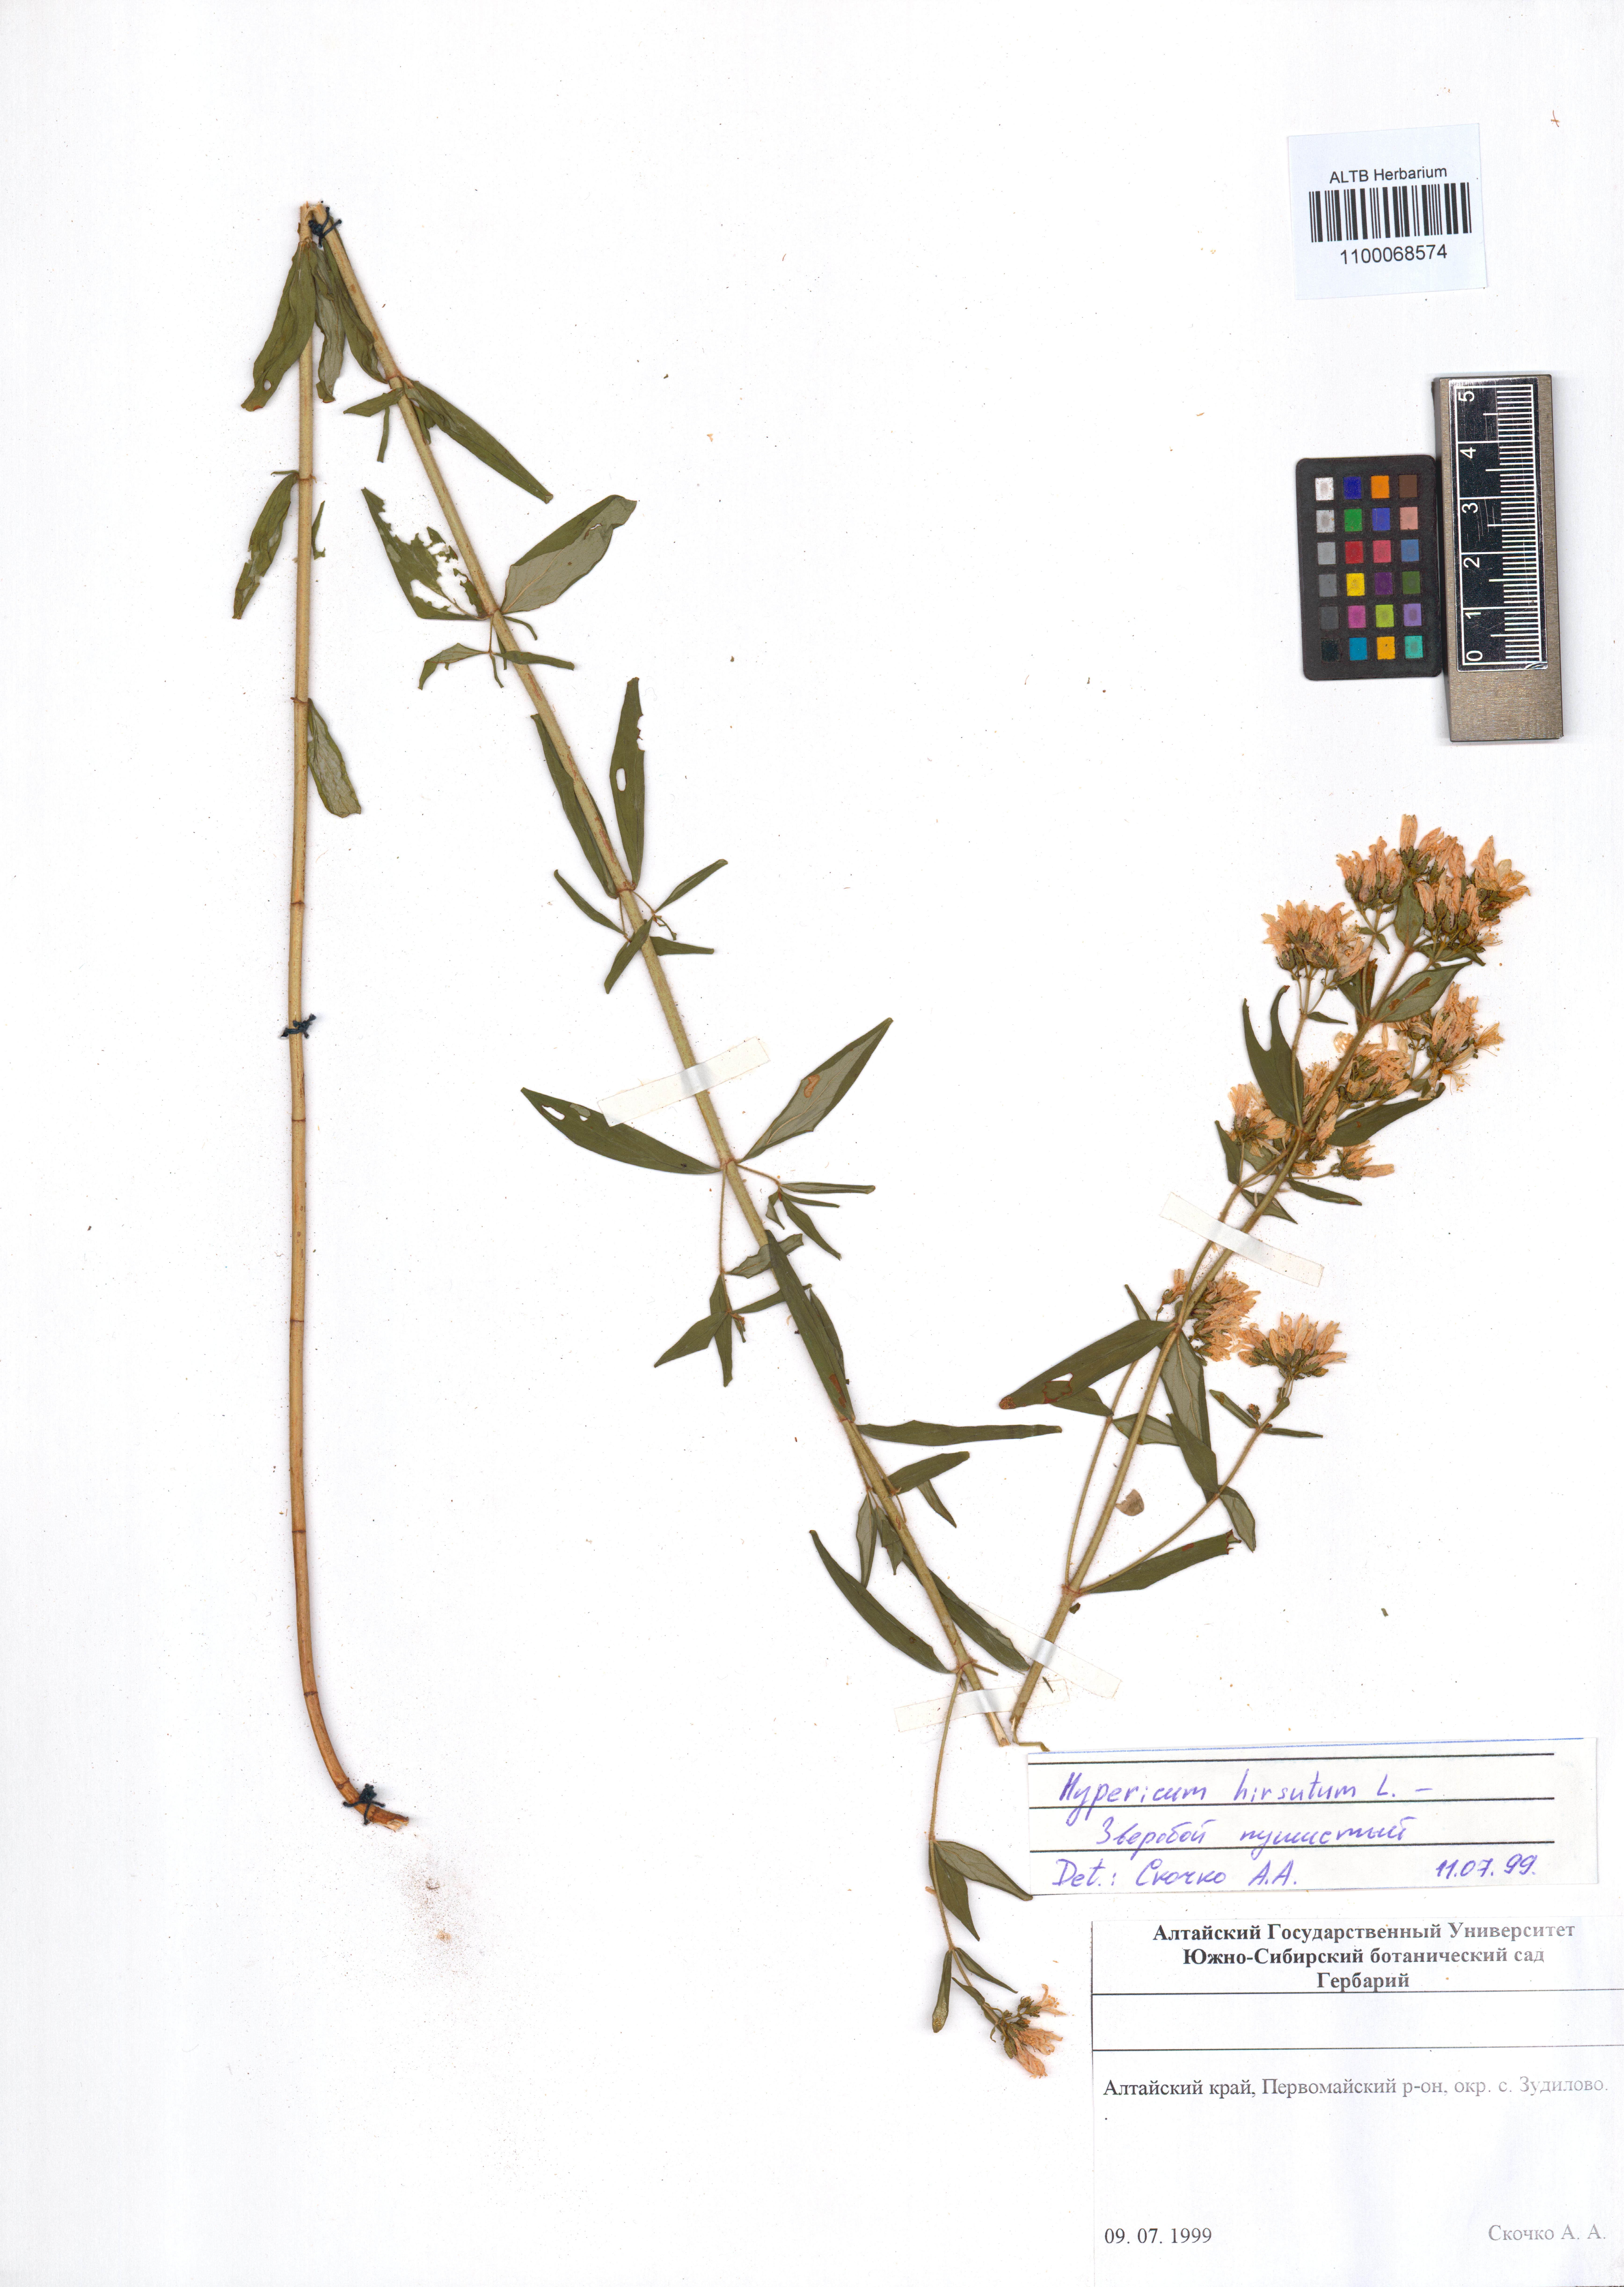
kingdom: Plantae
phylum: Tracheophyta
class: Magnoliopsida
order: Malpighiales
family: Hypericaceae
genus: Hypericum
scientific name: Hypericum hirsutum
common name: Hairy st. john's-wort
